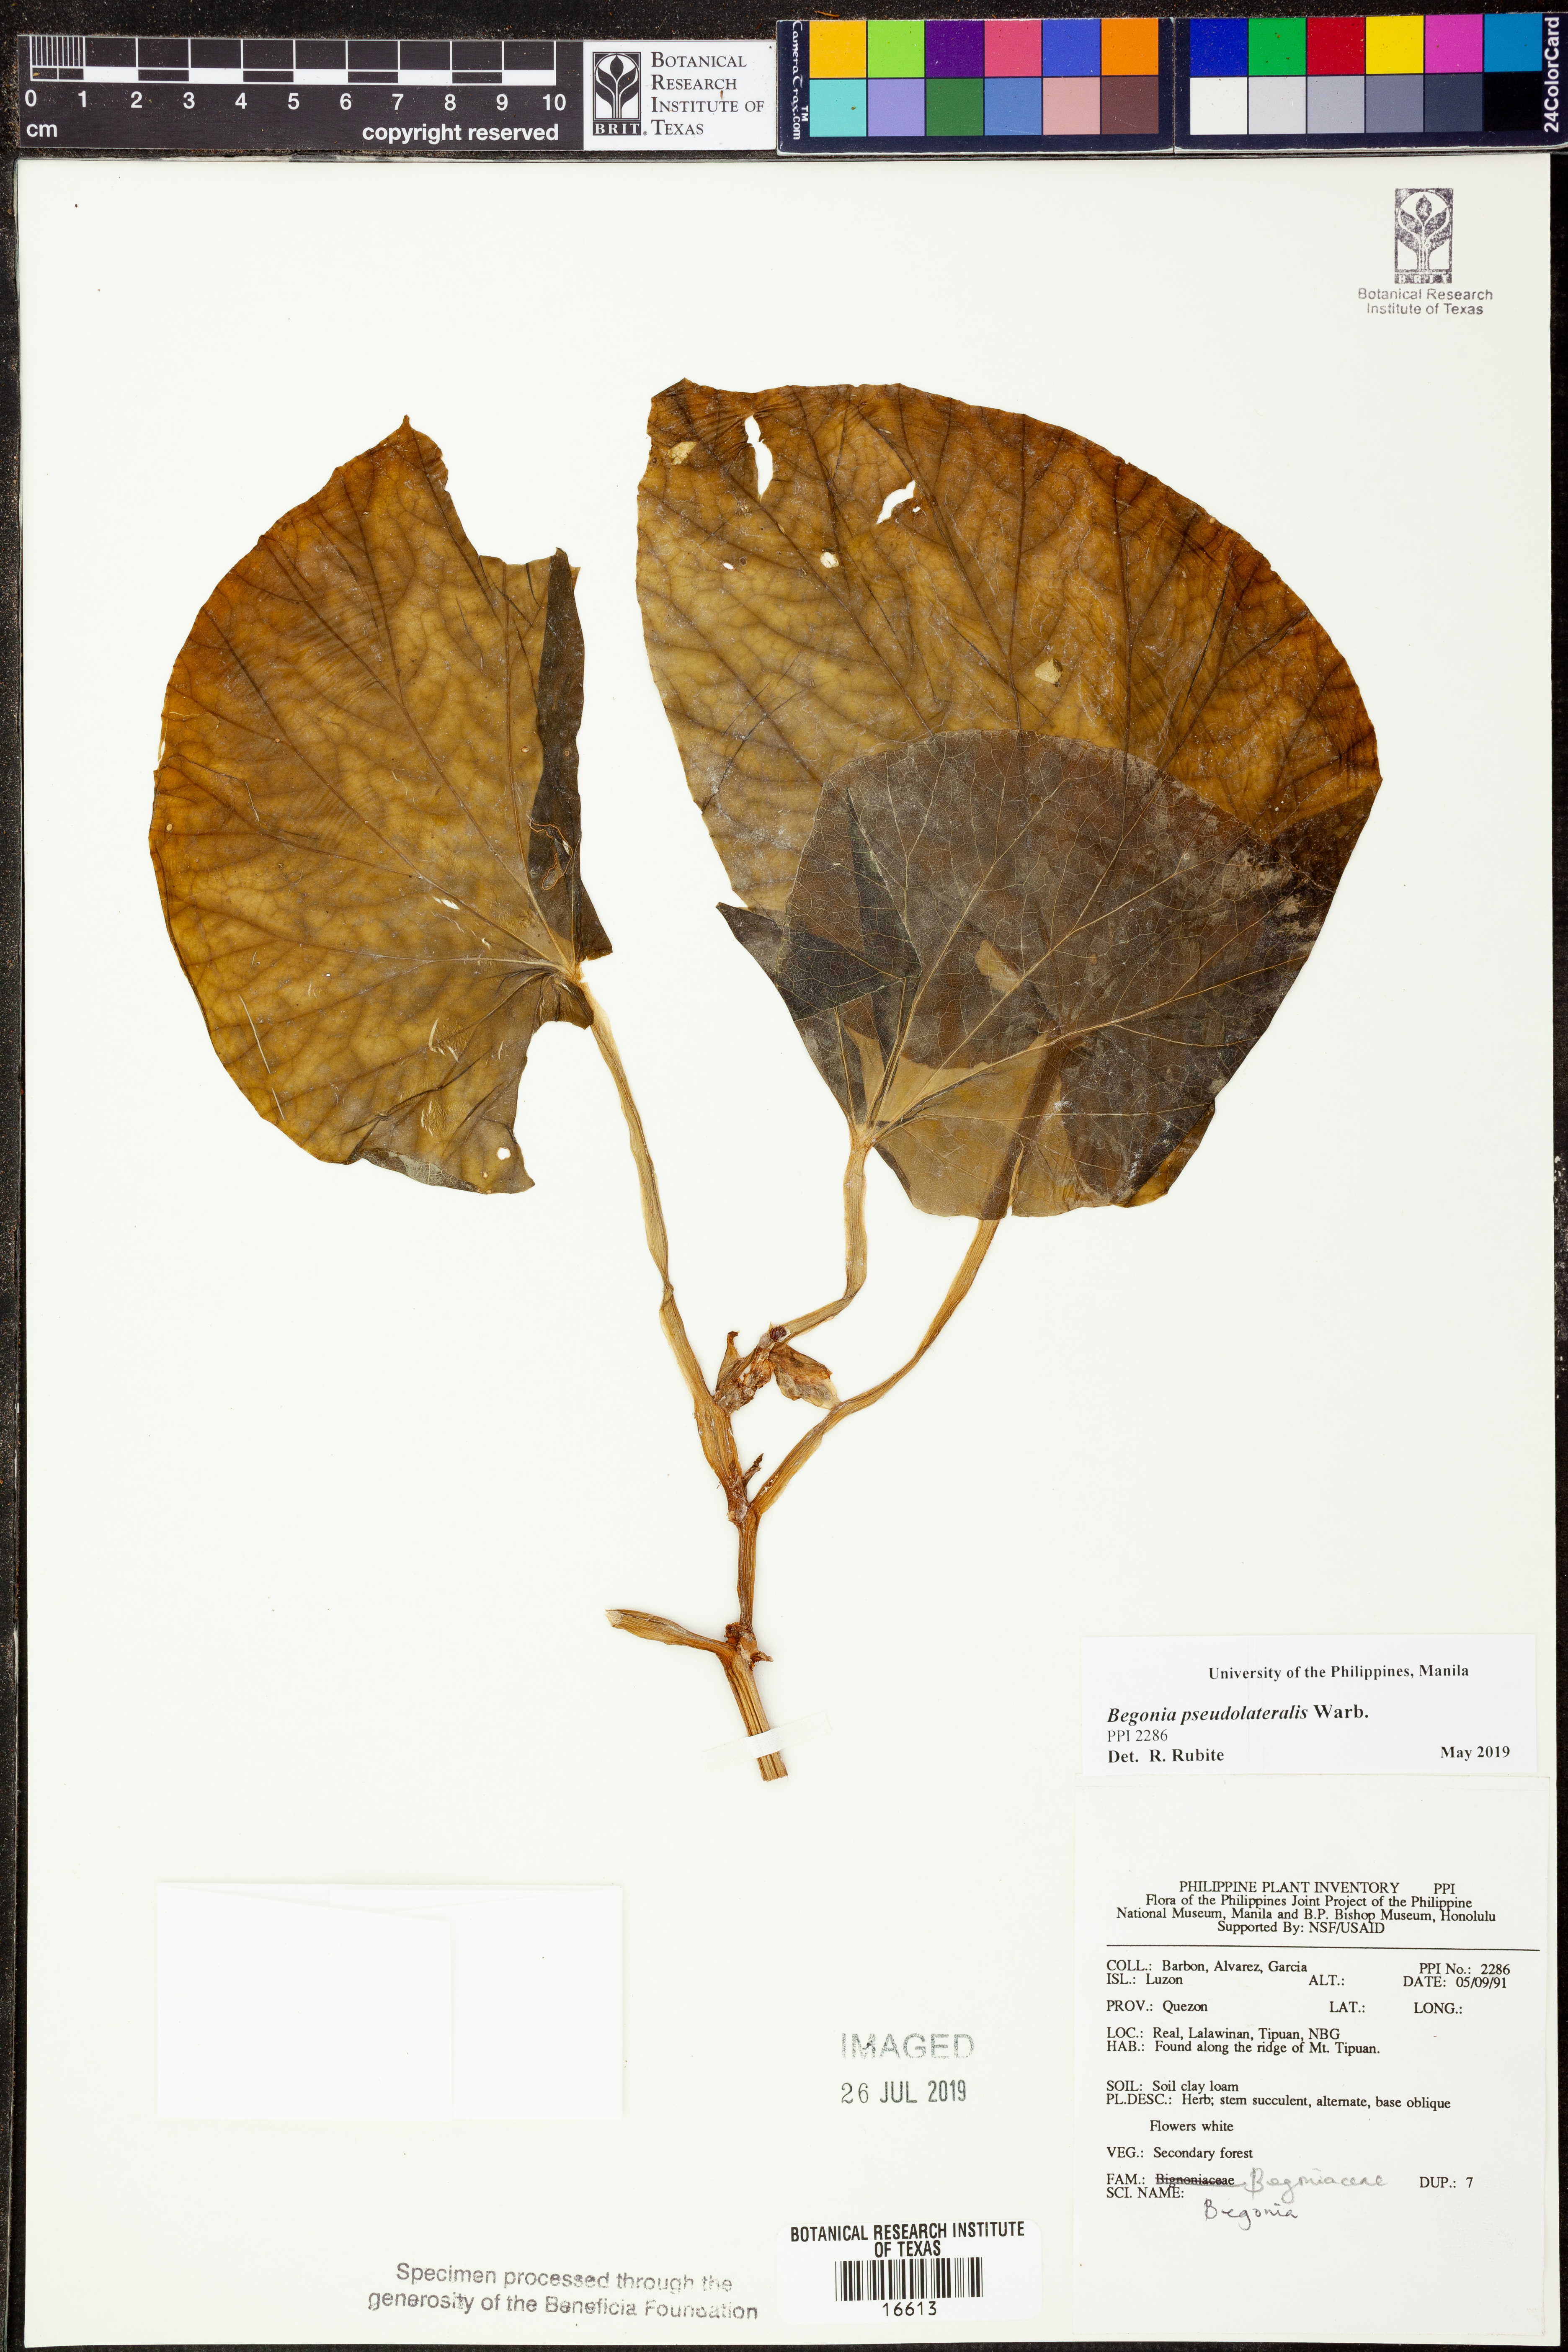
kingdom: Plantae
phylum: Tracheophyta
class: Magnoliopsida
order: Cucurbitales
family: Begoniaceae
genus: Begonia
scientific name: Begonia
